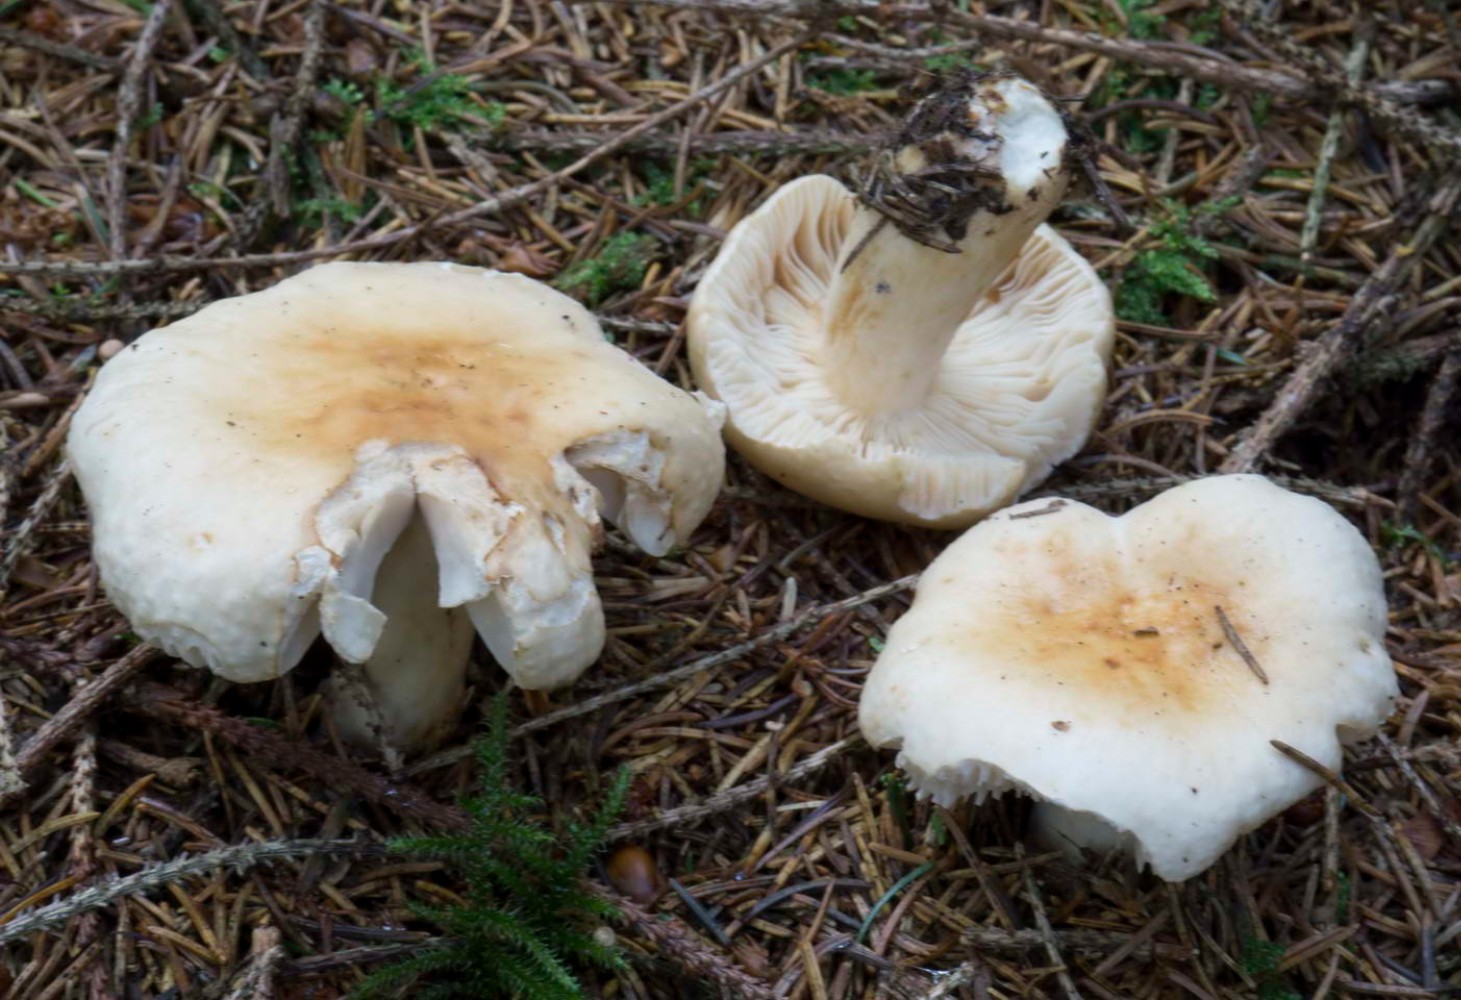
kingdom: Fungi
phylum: Basidiomycota
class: Agaricomycetes
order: Russulales
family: Russulaceae
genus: Russula
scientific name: Russula fellea
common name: galde-skørhat
